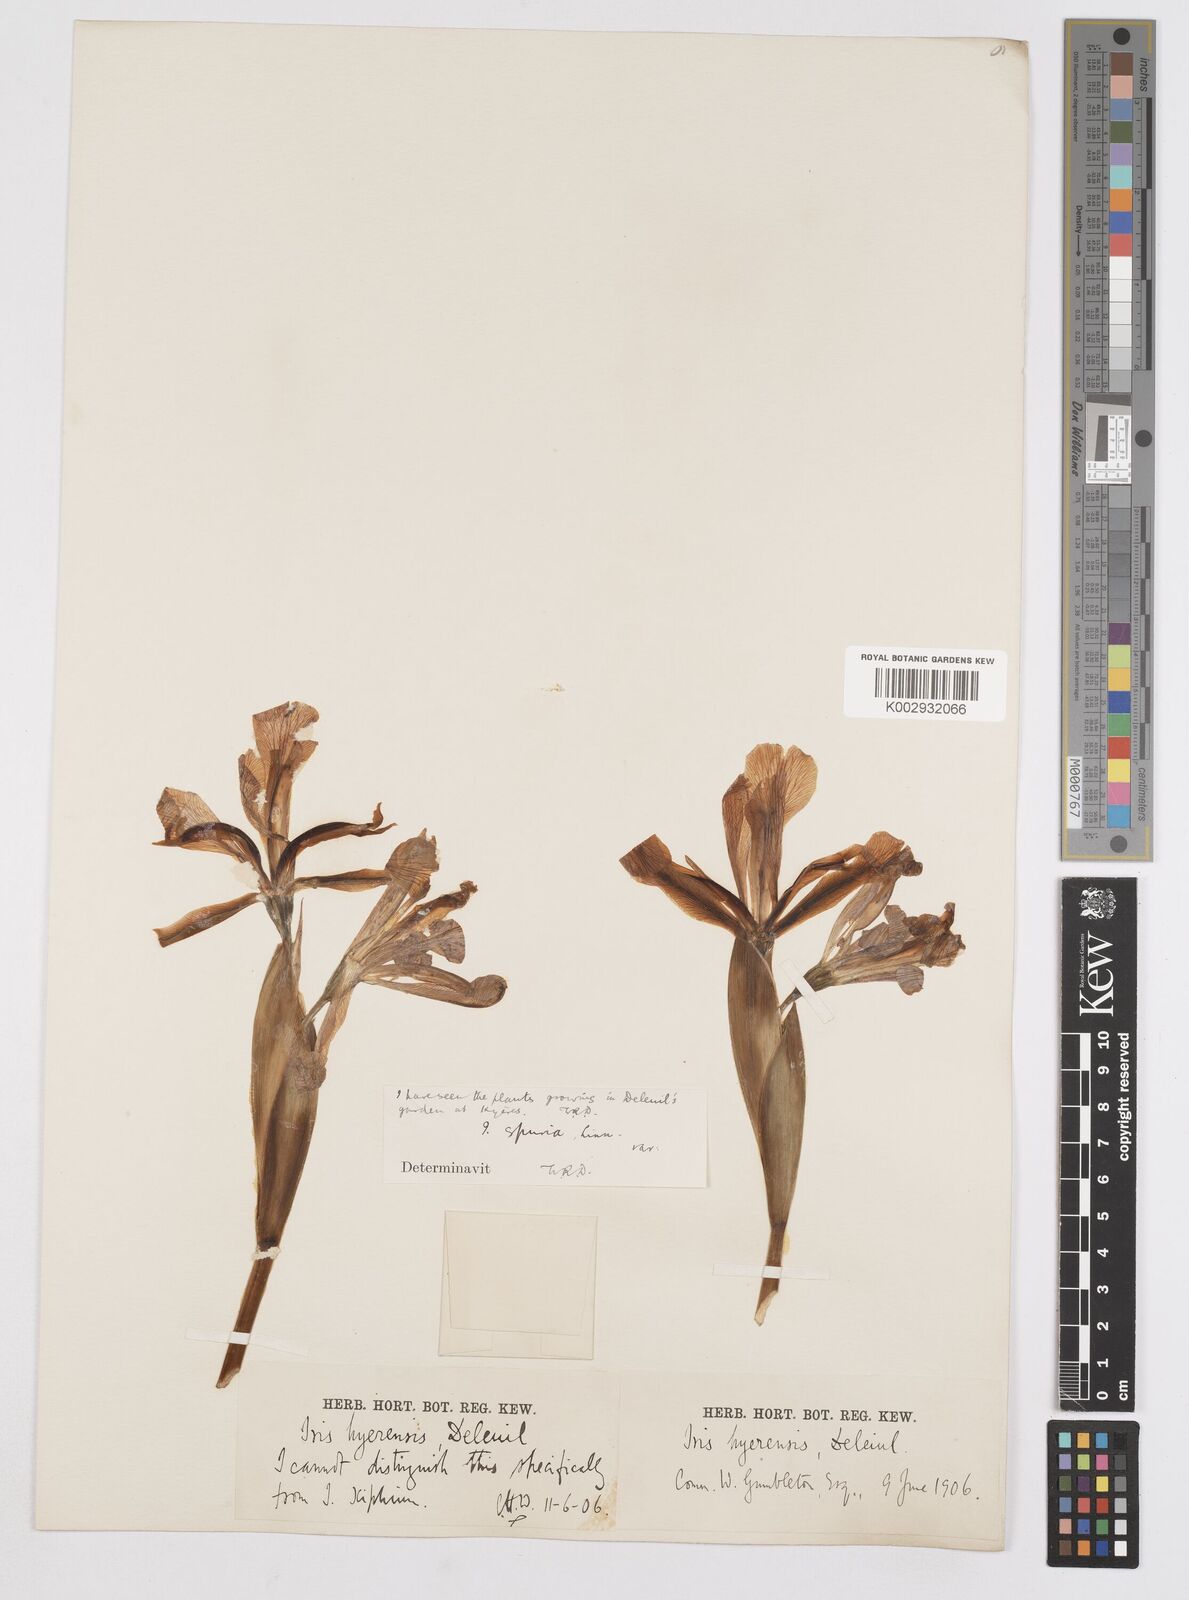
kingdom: Plantae
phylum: Tracheophyta
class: Liliopsida
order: Asparagales
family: Iridaceae
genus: Iris
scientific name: Iris
